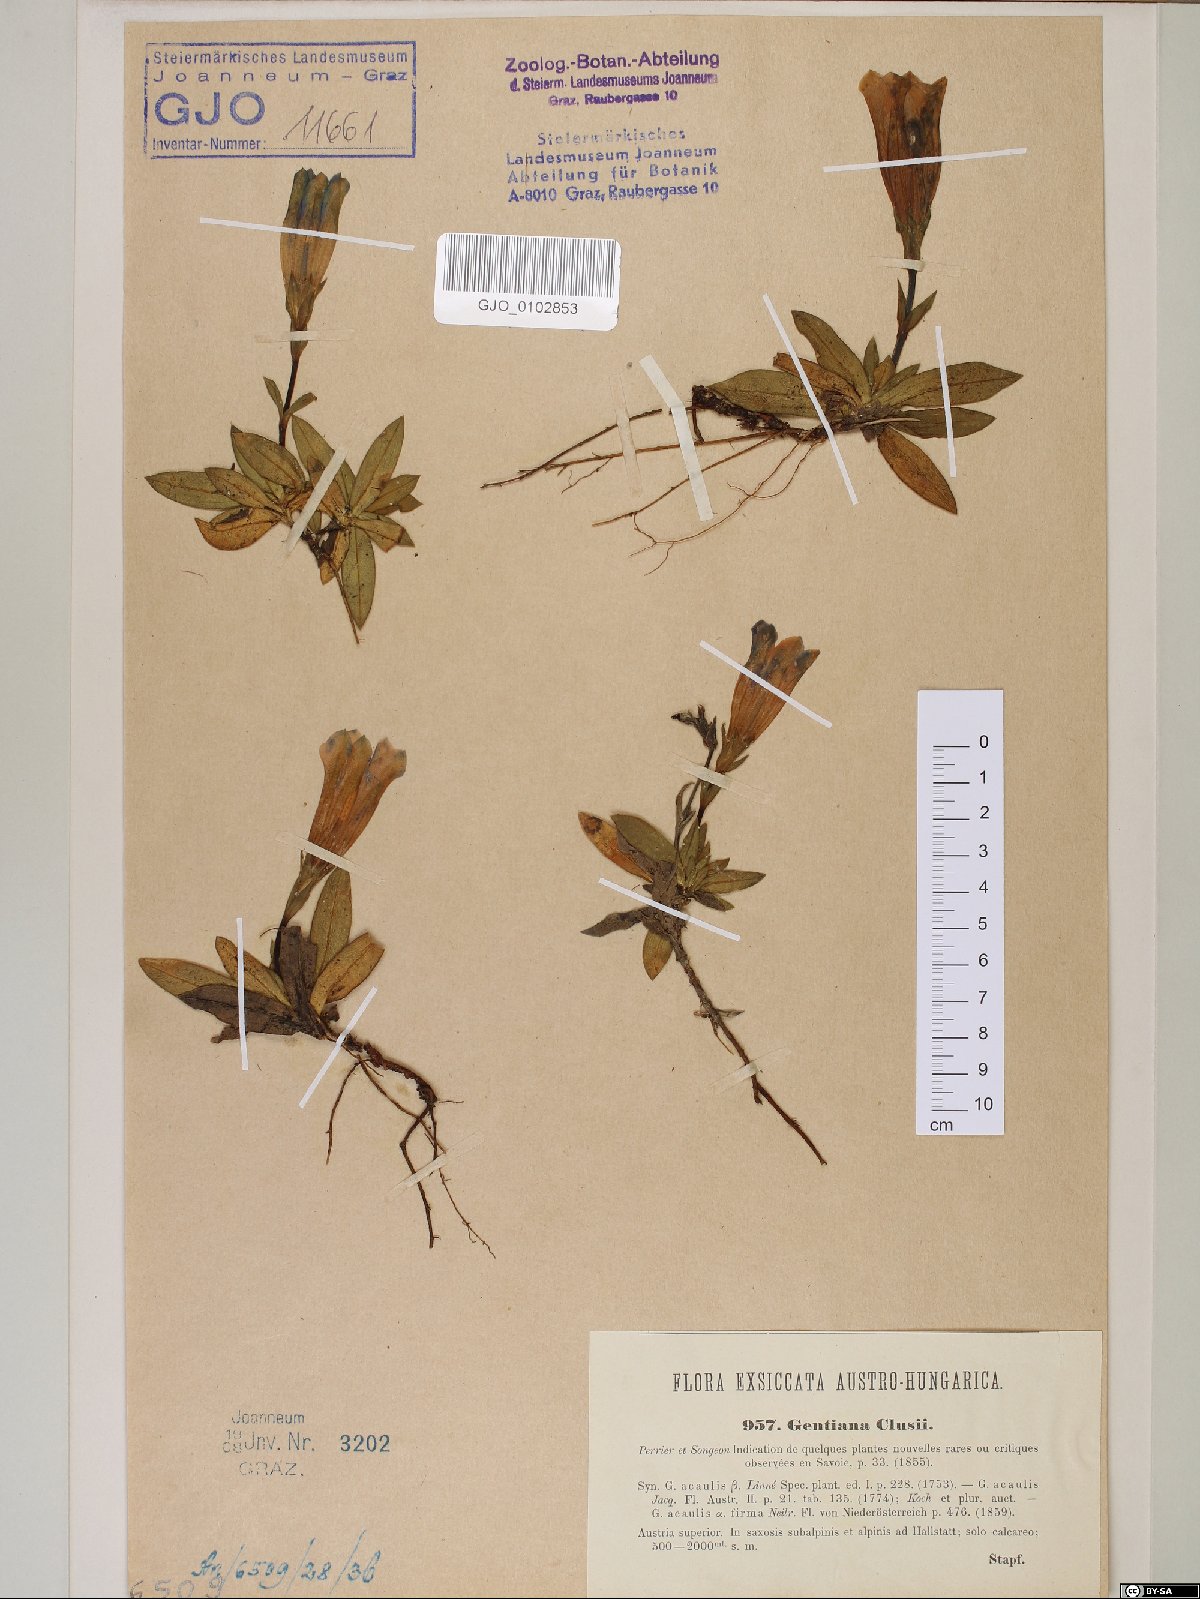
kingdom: Plantae
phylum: Tracheophyta
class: Magnoliopsida
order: Gentianales
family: Gentianaceae
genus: Gentiana
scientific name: Gentiana clusii
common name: Trumpet gentian
